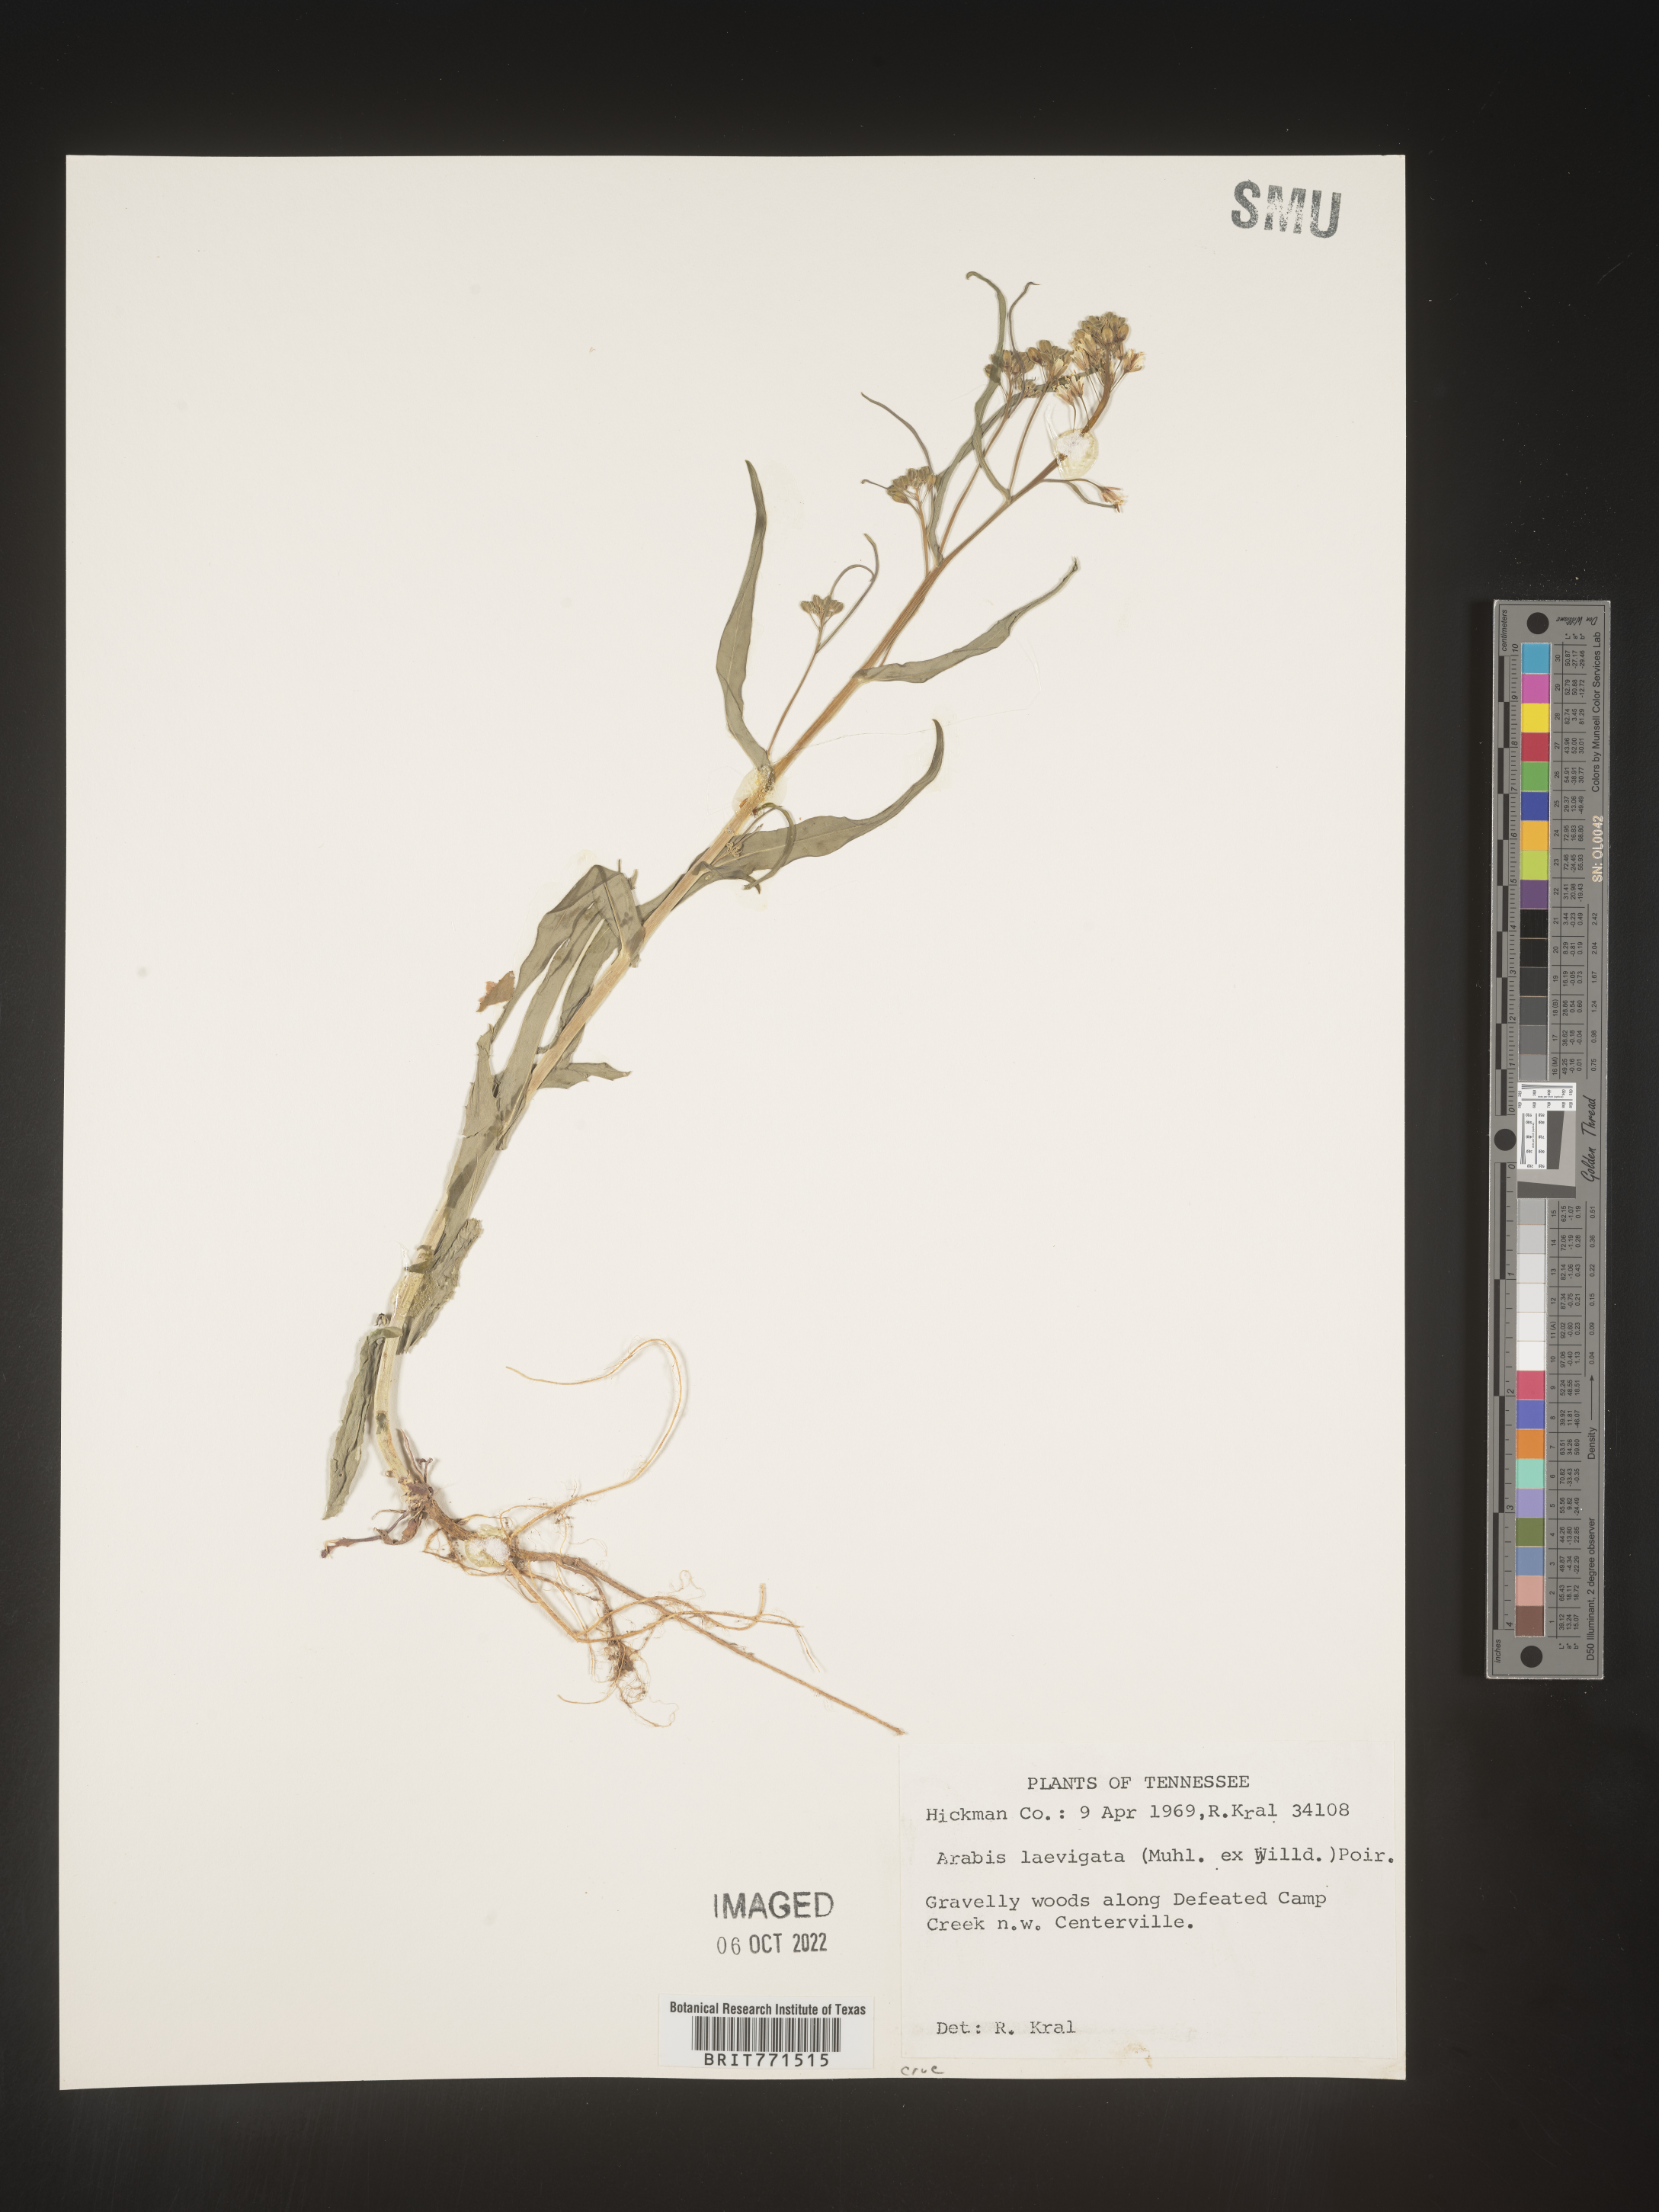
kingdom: Plantae
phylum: Tracheophyta
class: Magnoliopsida
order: Brassicales
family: Brassicaceae
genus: Arabis
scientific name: Arabis laevigata
